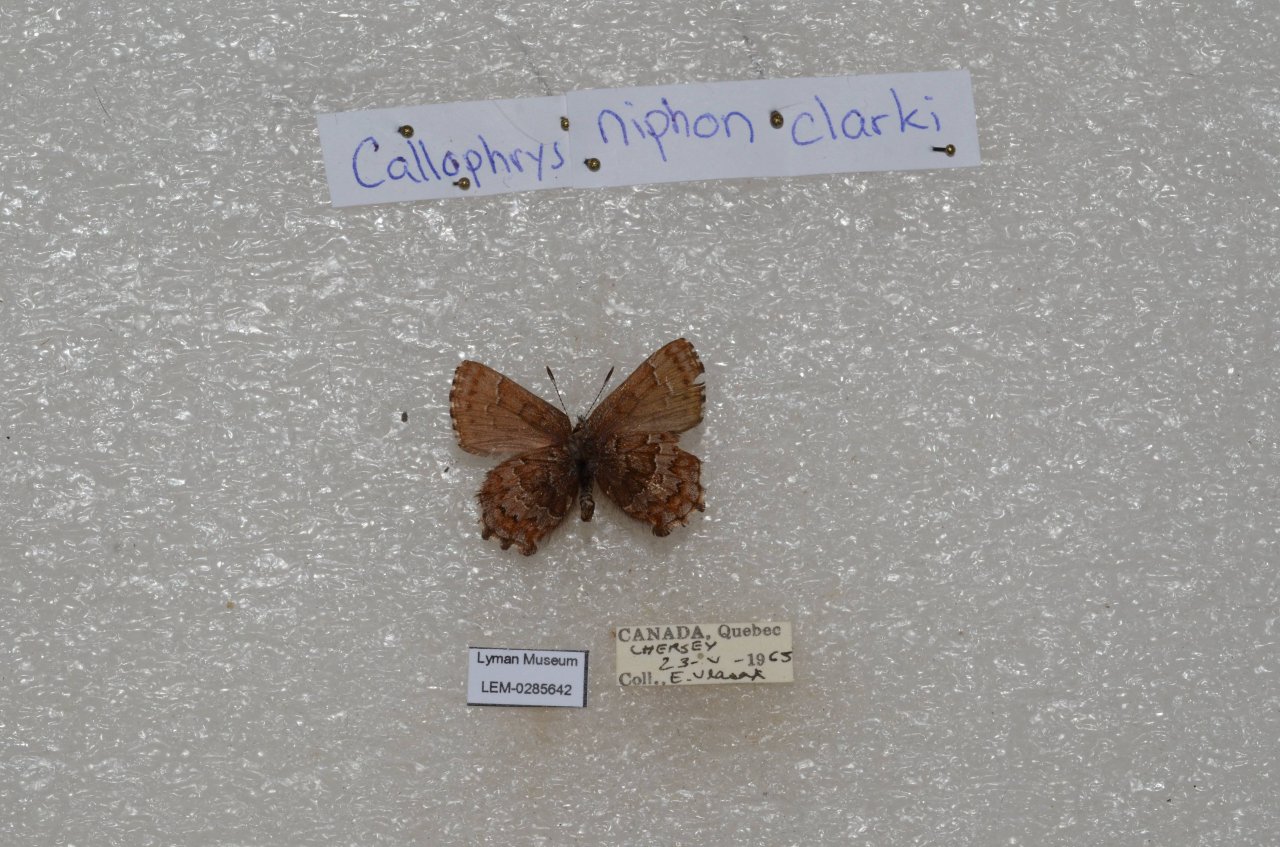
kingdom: Animalia
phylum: Arthropoda
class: Insecta
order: Lepidoptera
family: Lycaenidae
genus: Incisalia
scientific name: Incisalia niphon
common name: Eastern Pine Elfin
